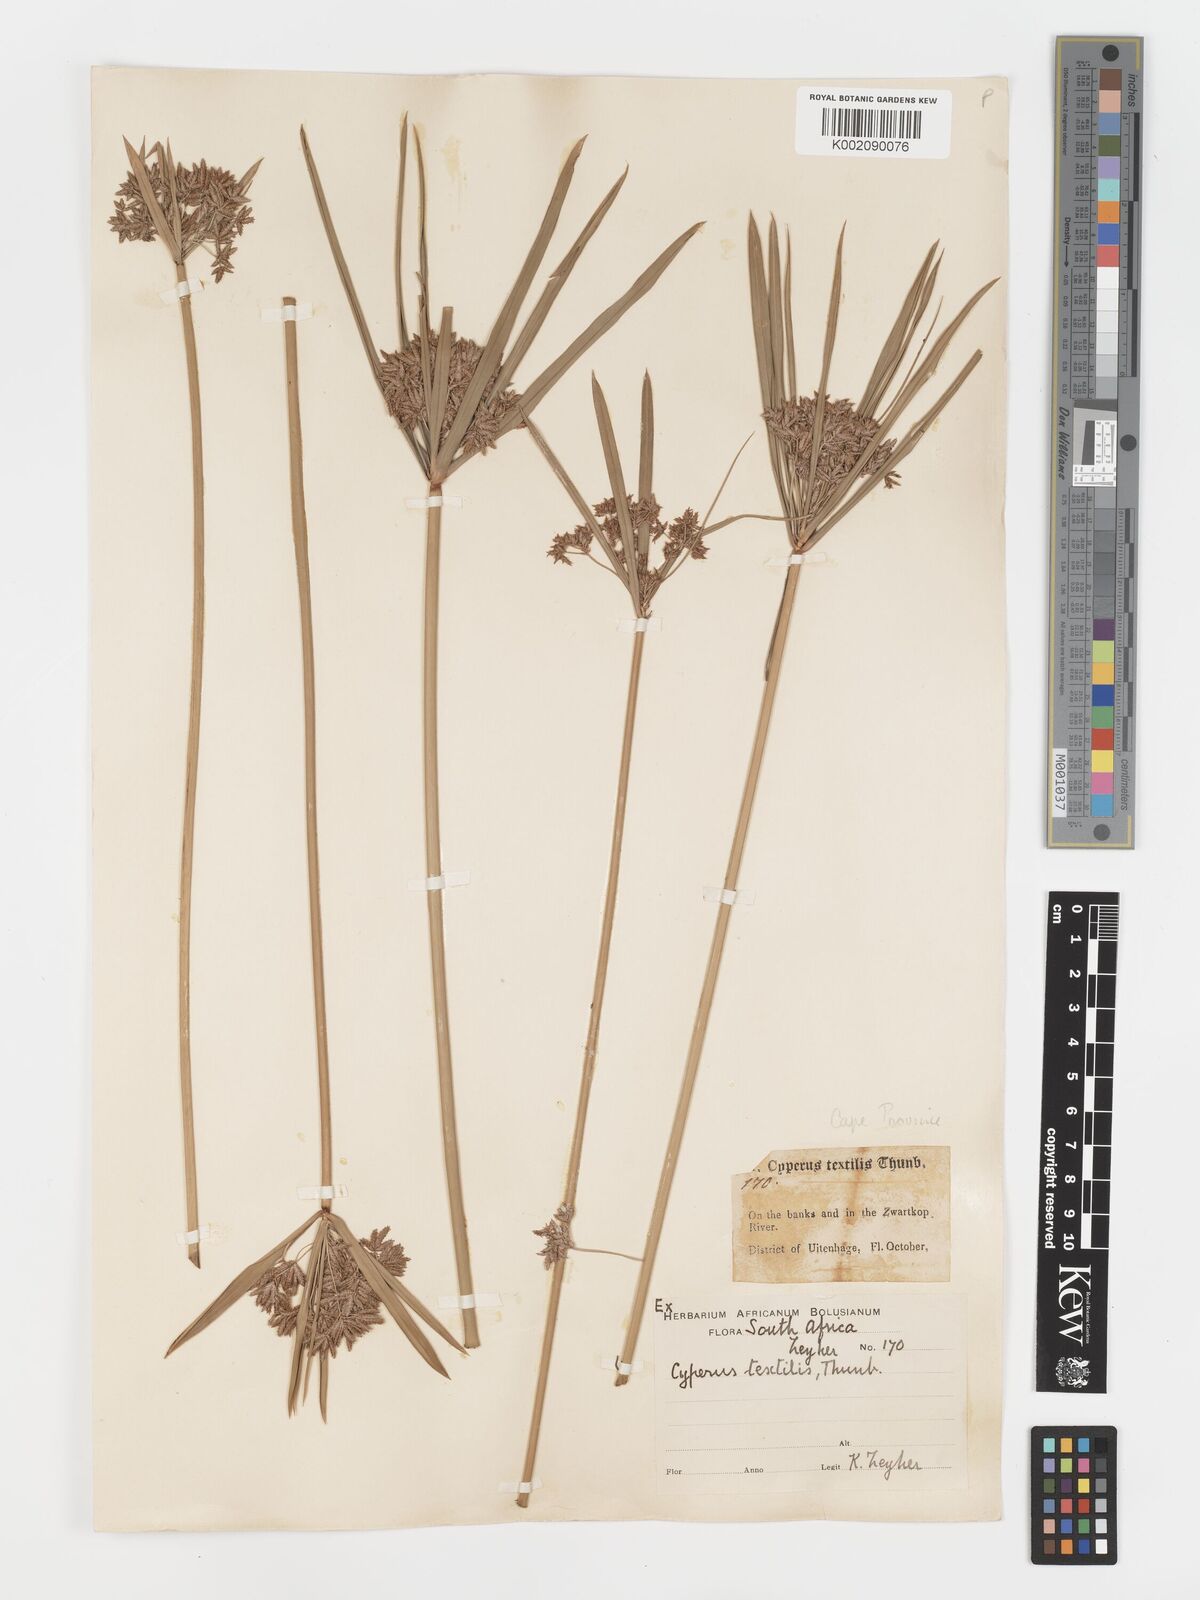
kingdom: Plantae
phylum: Tracheophyta
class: Liliopsida
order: Poales
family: Cyperaceae
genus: Cyperus
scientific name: Cyperus alternifolius
